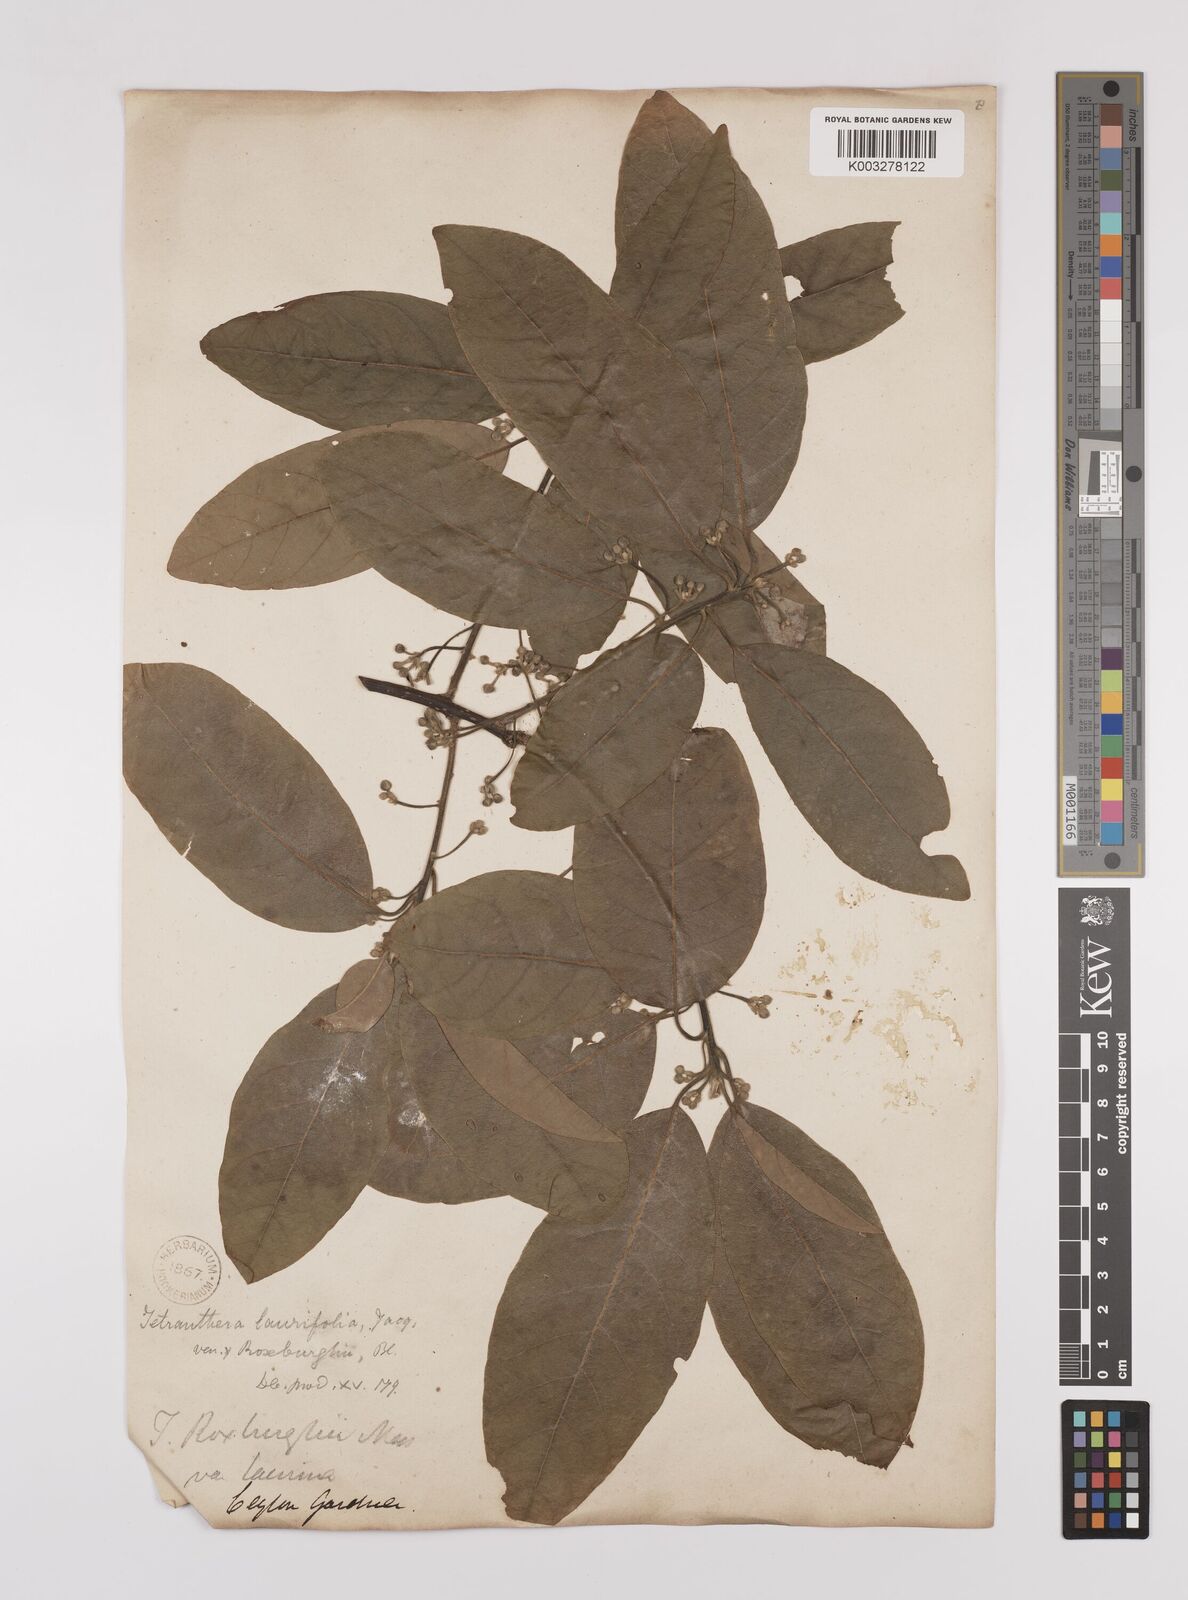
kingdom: Plantae
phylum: Tracheophyta
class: Magnoliopsida
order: Laurales
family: Lauraceae
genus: Litsea
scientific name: Litsea
